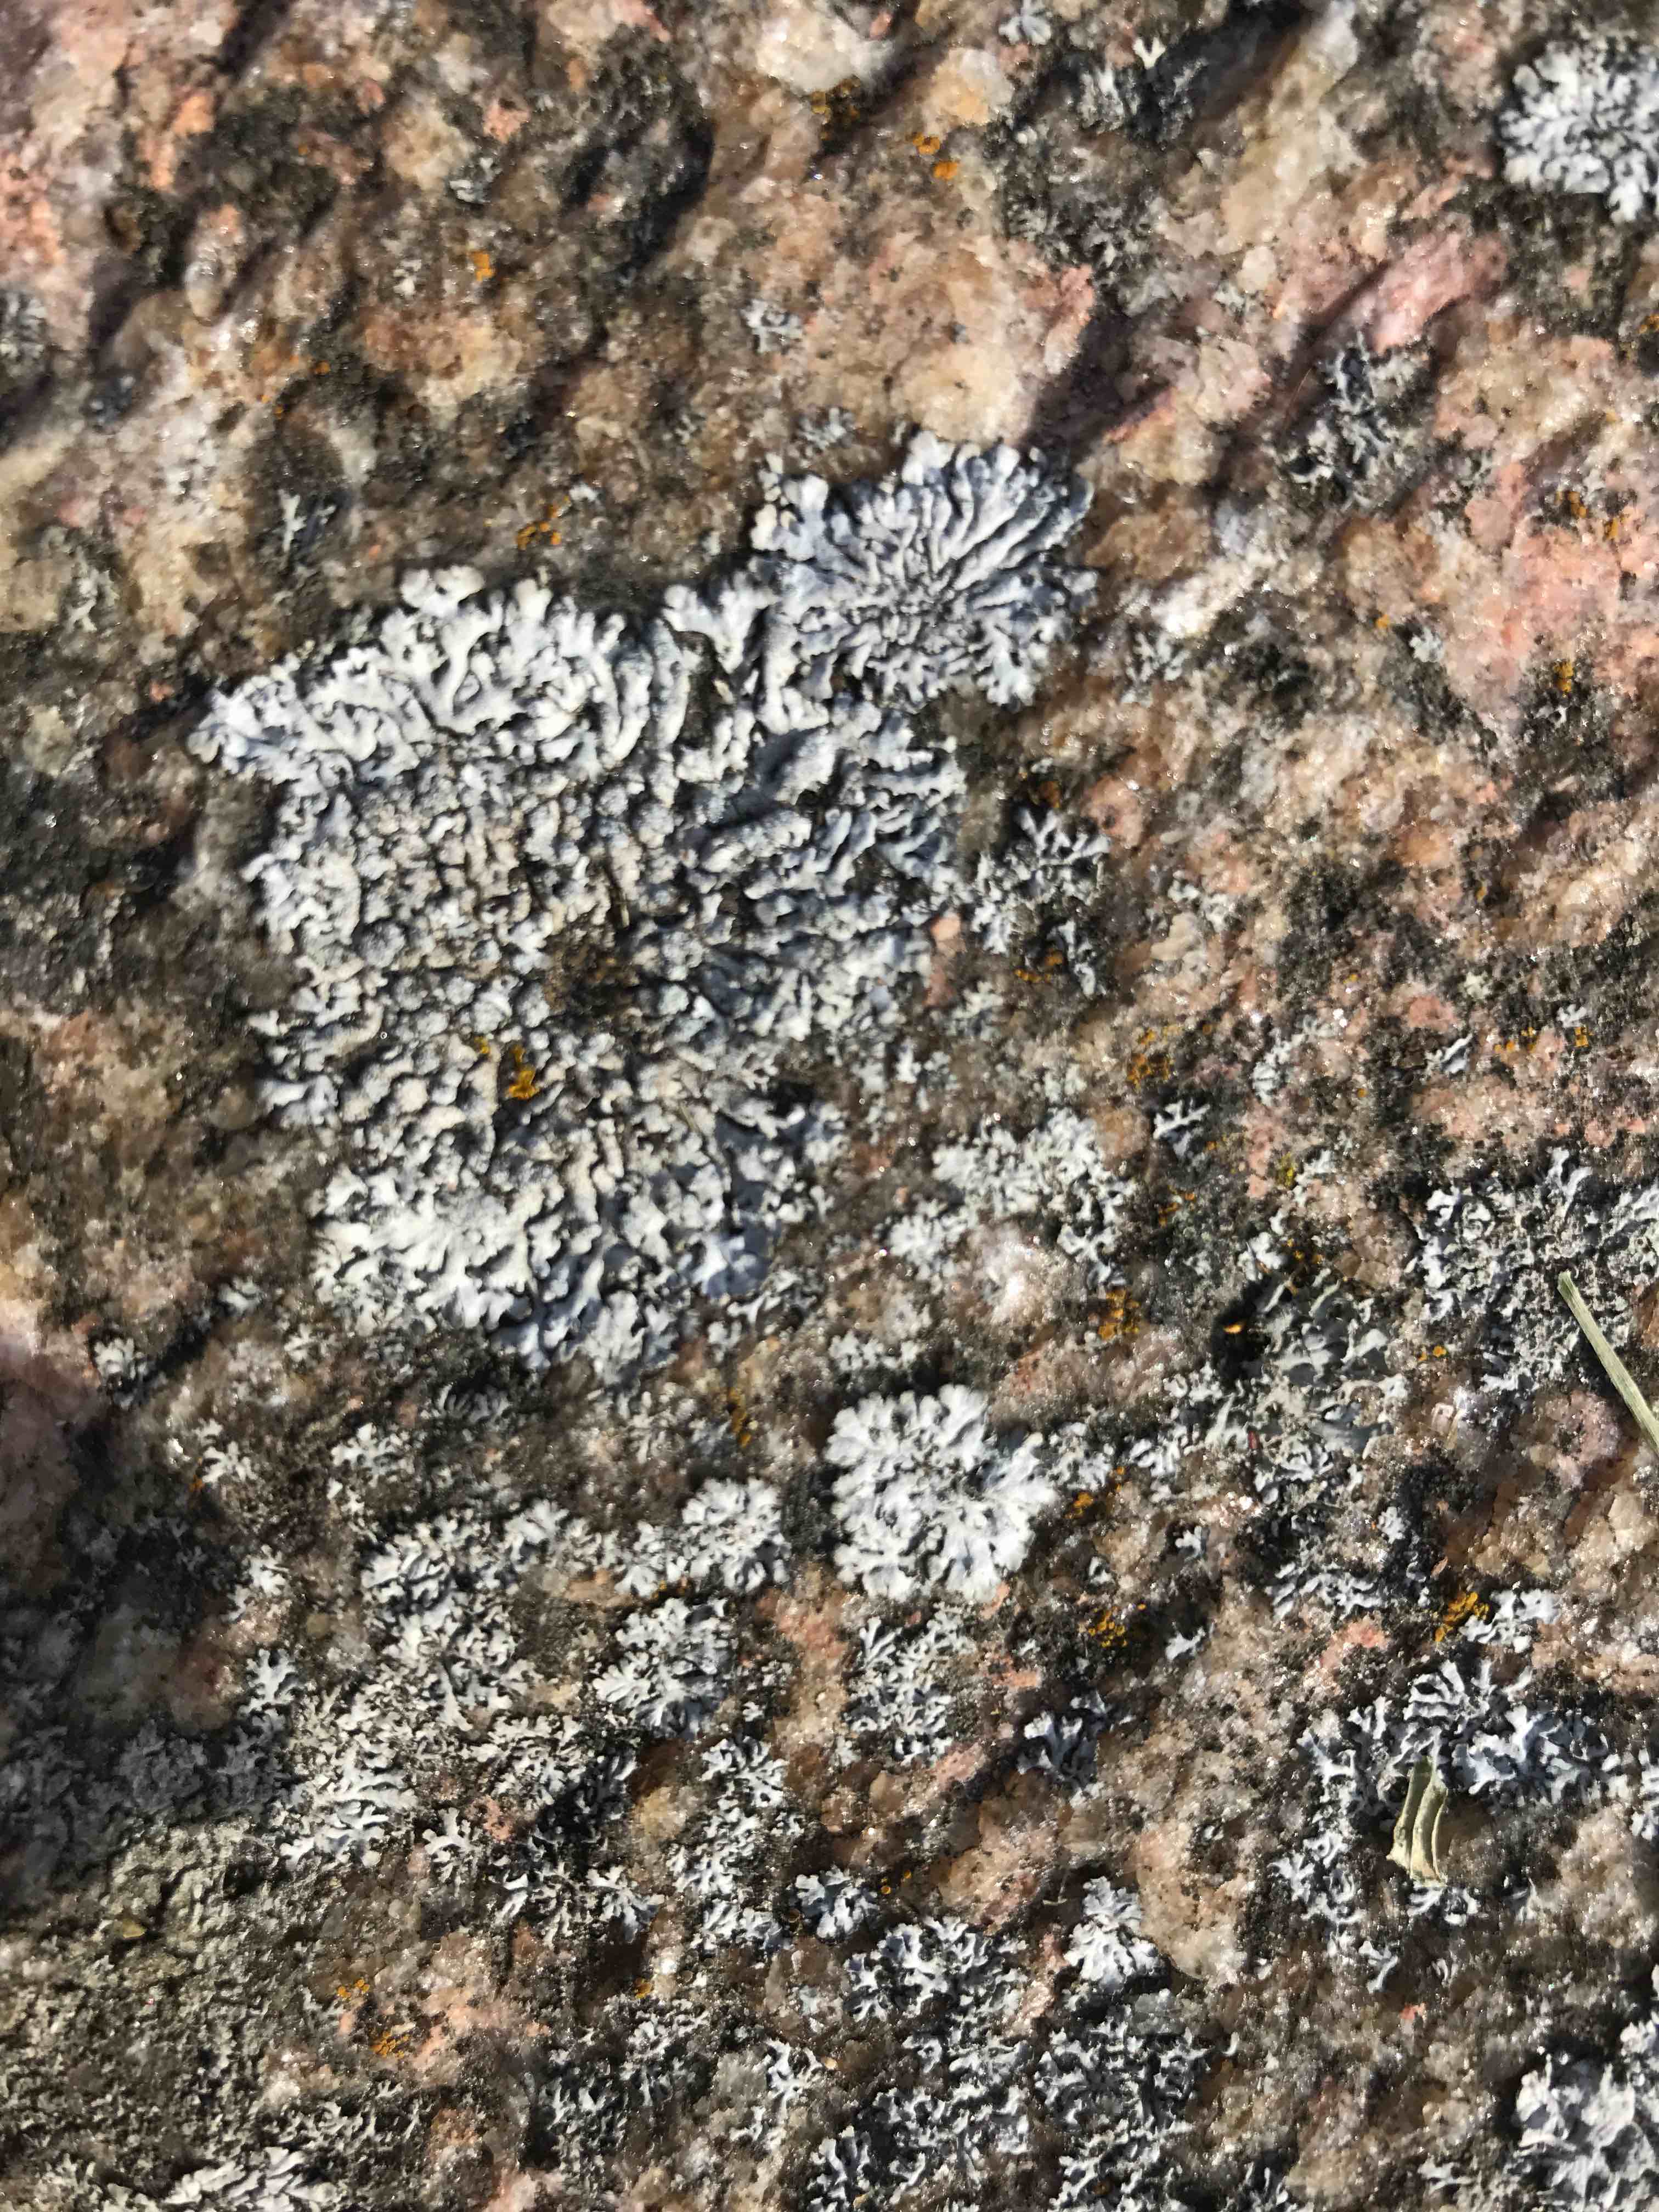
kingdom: Fungi
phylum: Ascomycota
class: Lecanoromycetes
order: Lecanorales
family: Parmeliaceae
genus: Xanthoparmelia
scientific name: Xanthoparmelia conspersa
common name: messing-skållav
